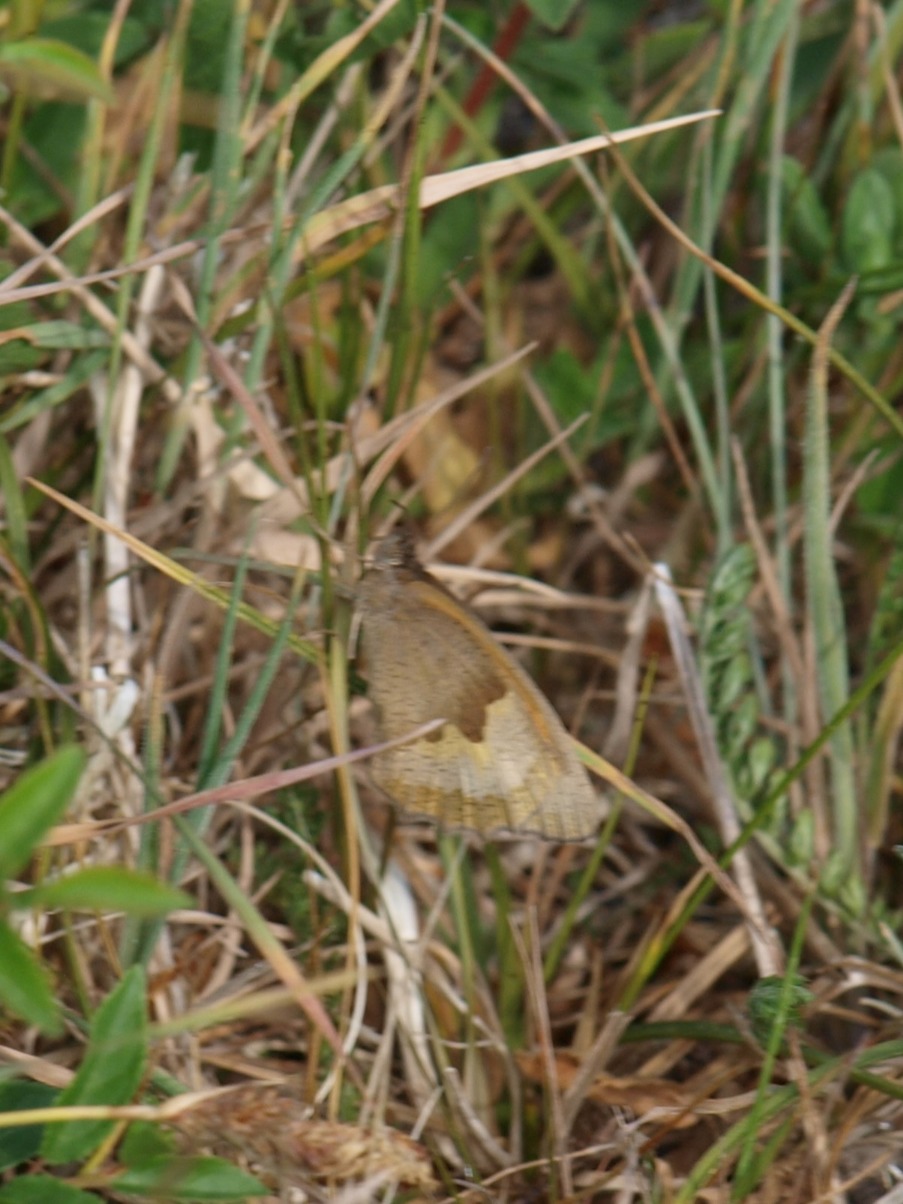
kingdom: Animalia
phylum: Arthropoda
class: Insecta
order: Lepidoptera
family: Nymphalidae
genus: Maniola
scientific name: Maniola jurtina
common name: Græsrandøje
